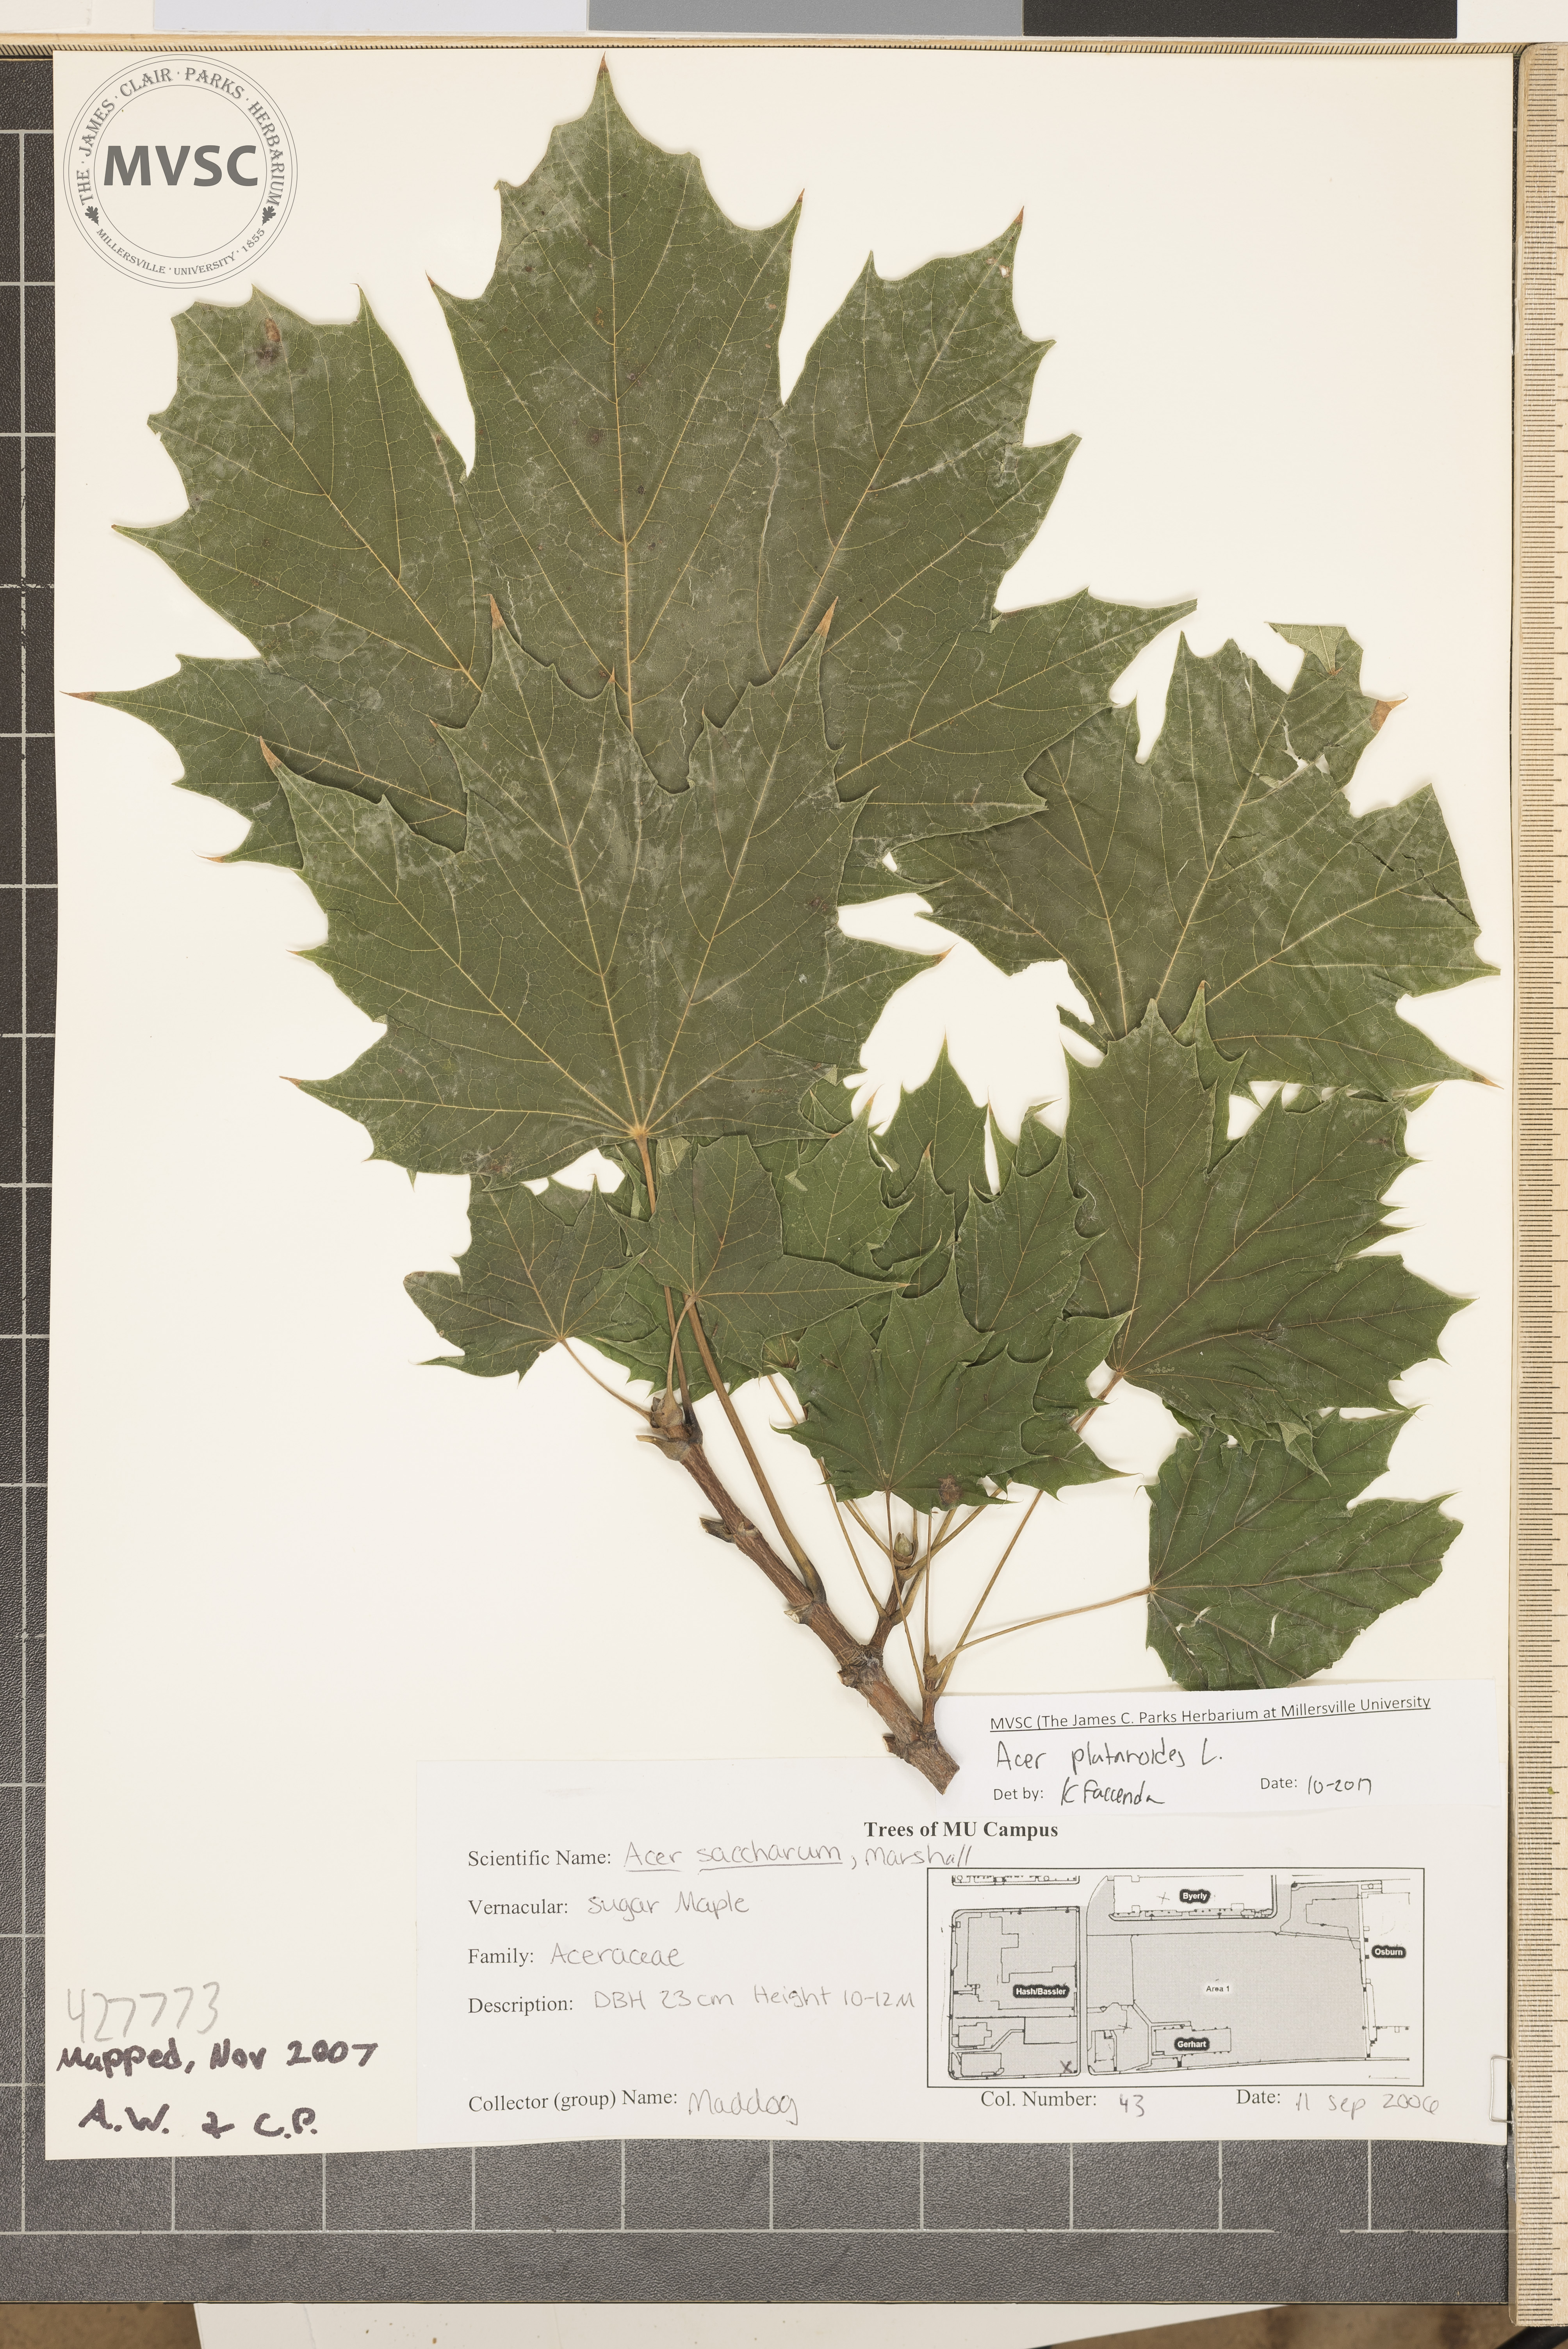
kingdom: Plantae
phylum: Tracheophyta
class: Magnoliopsida
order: Sapindales
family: Sapindaceae
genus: Acer
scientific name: Acer platanoides
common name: Norway maple
